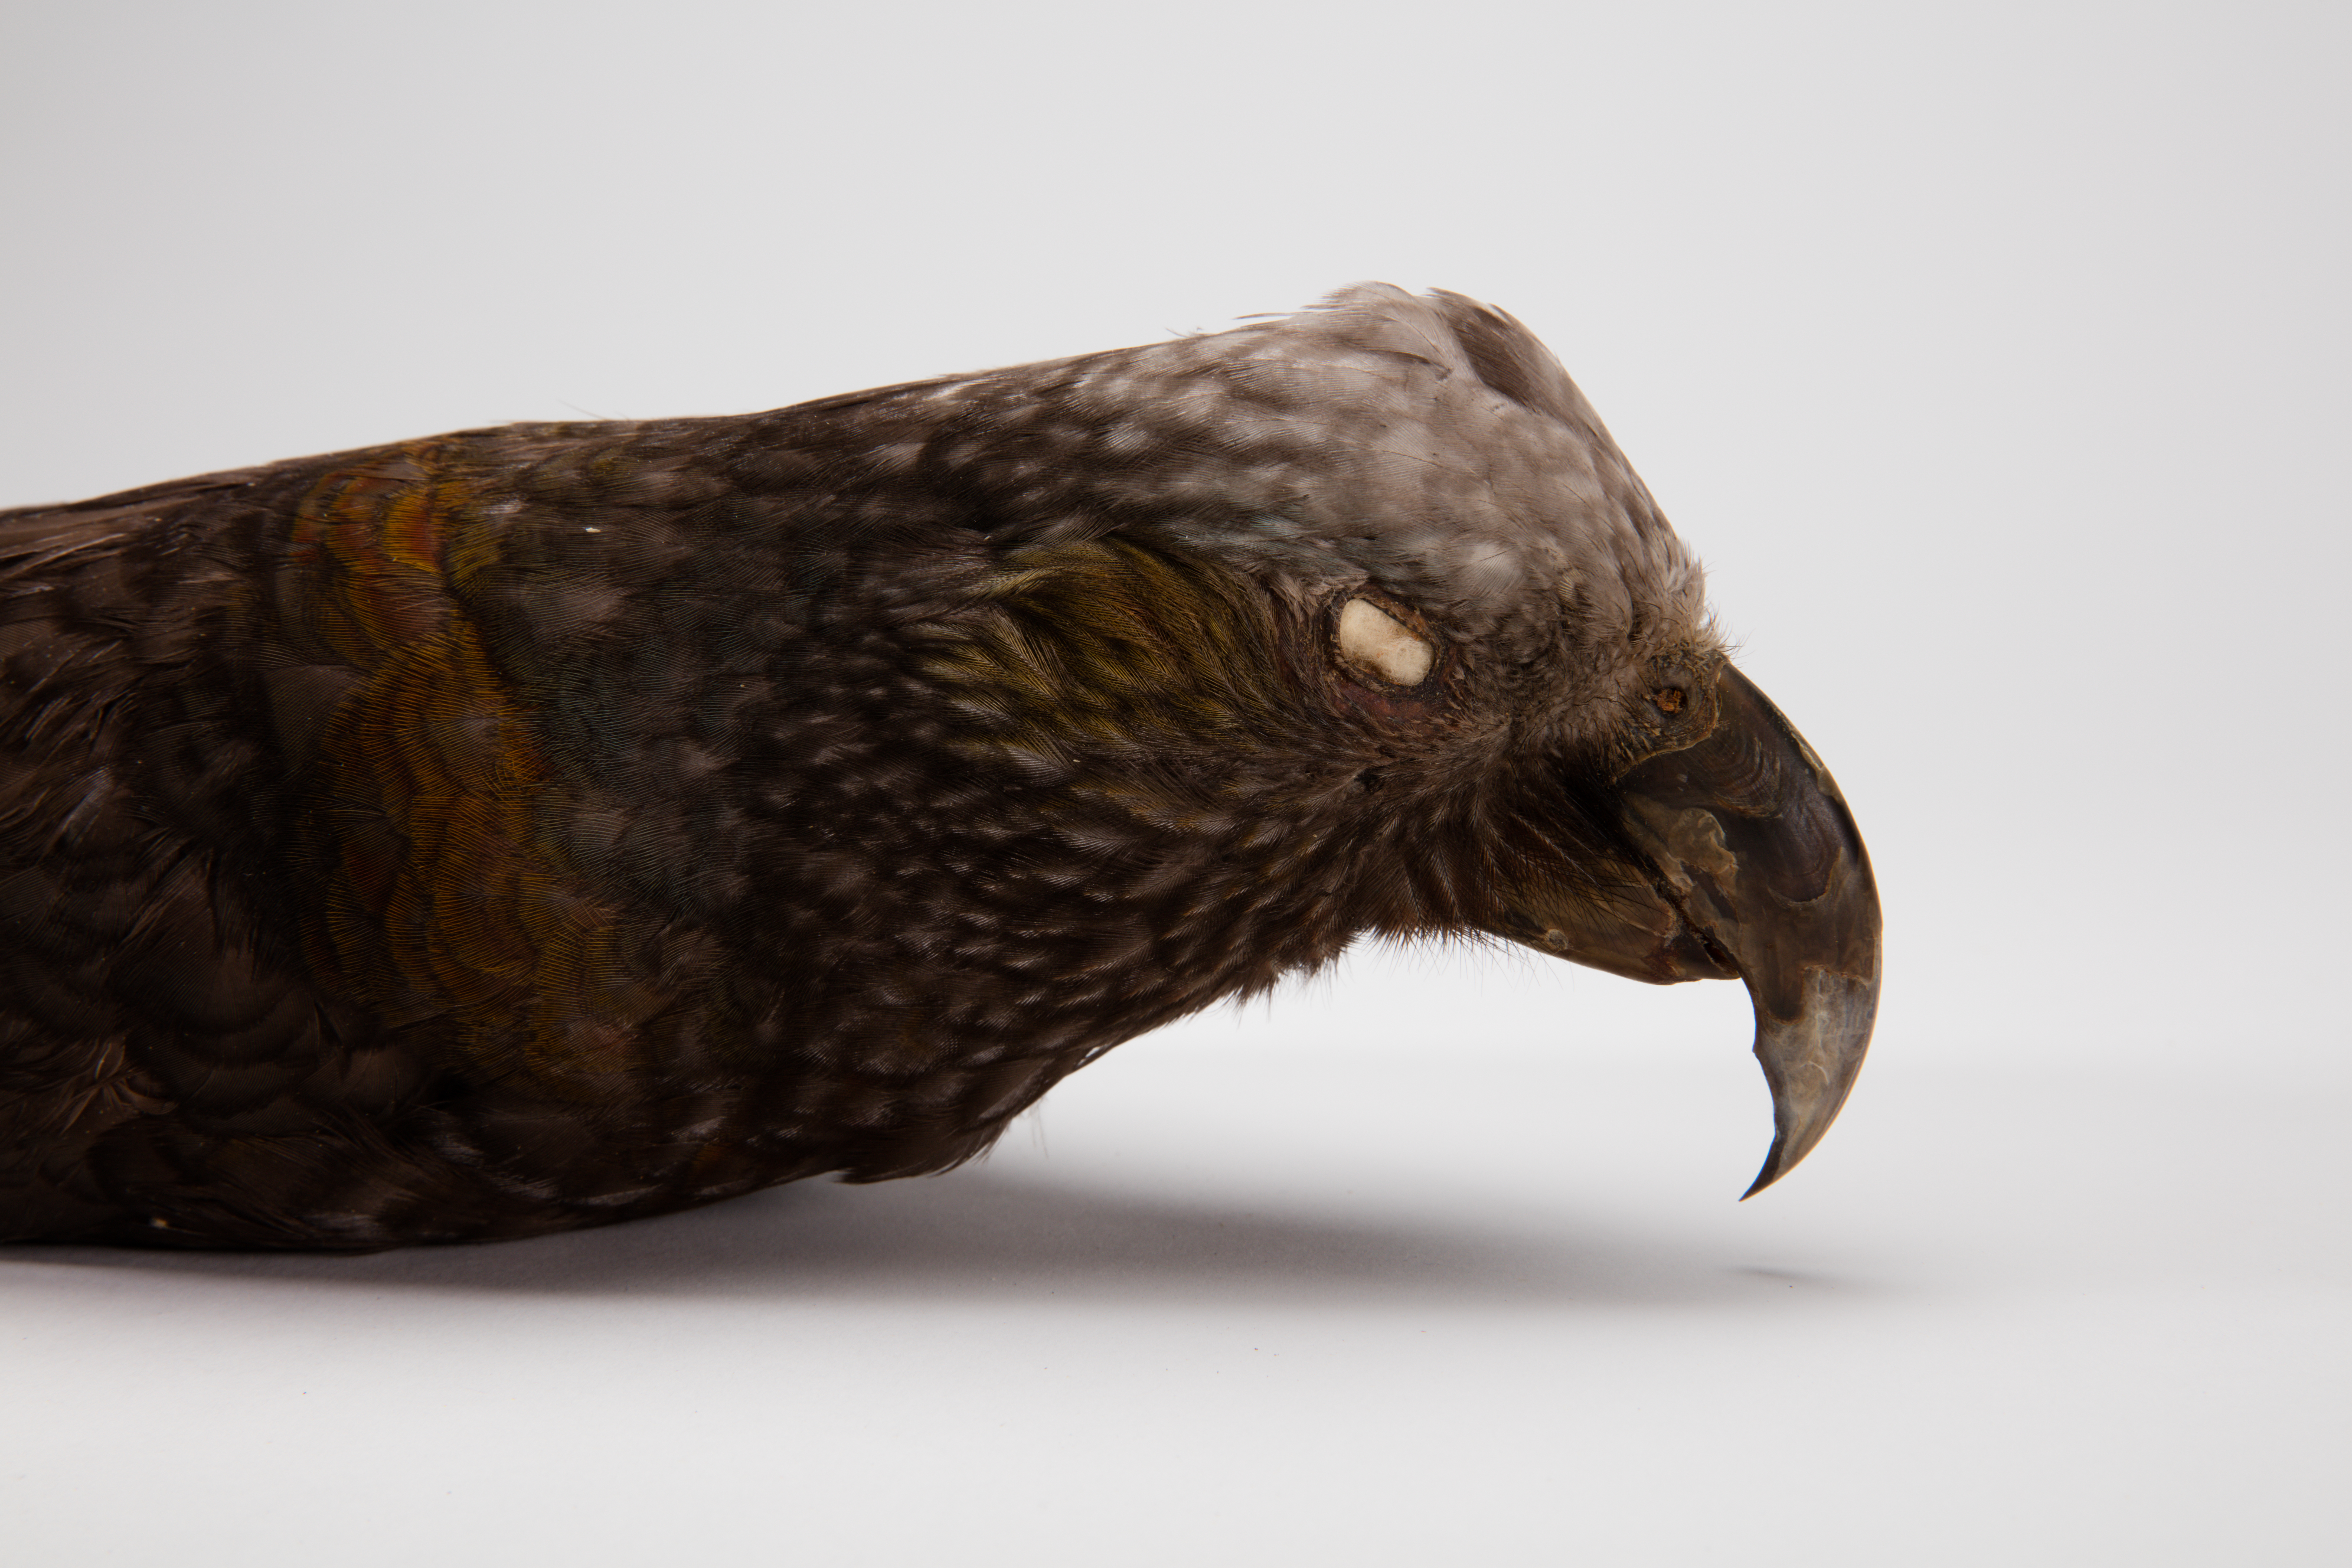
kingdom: Animalia
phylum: Chordata
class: Aves
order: Psittaciformes
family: Psittacidae
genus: Nestor
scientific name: Nestor meridionalis
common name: New zealand kaka
